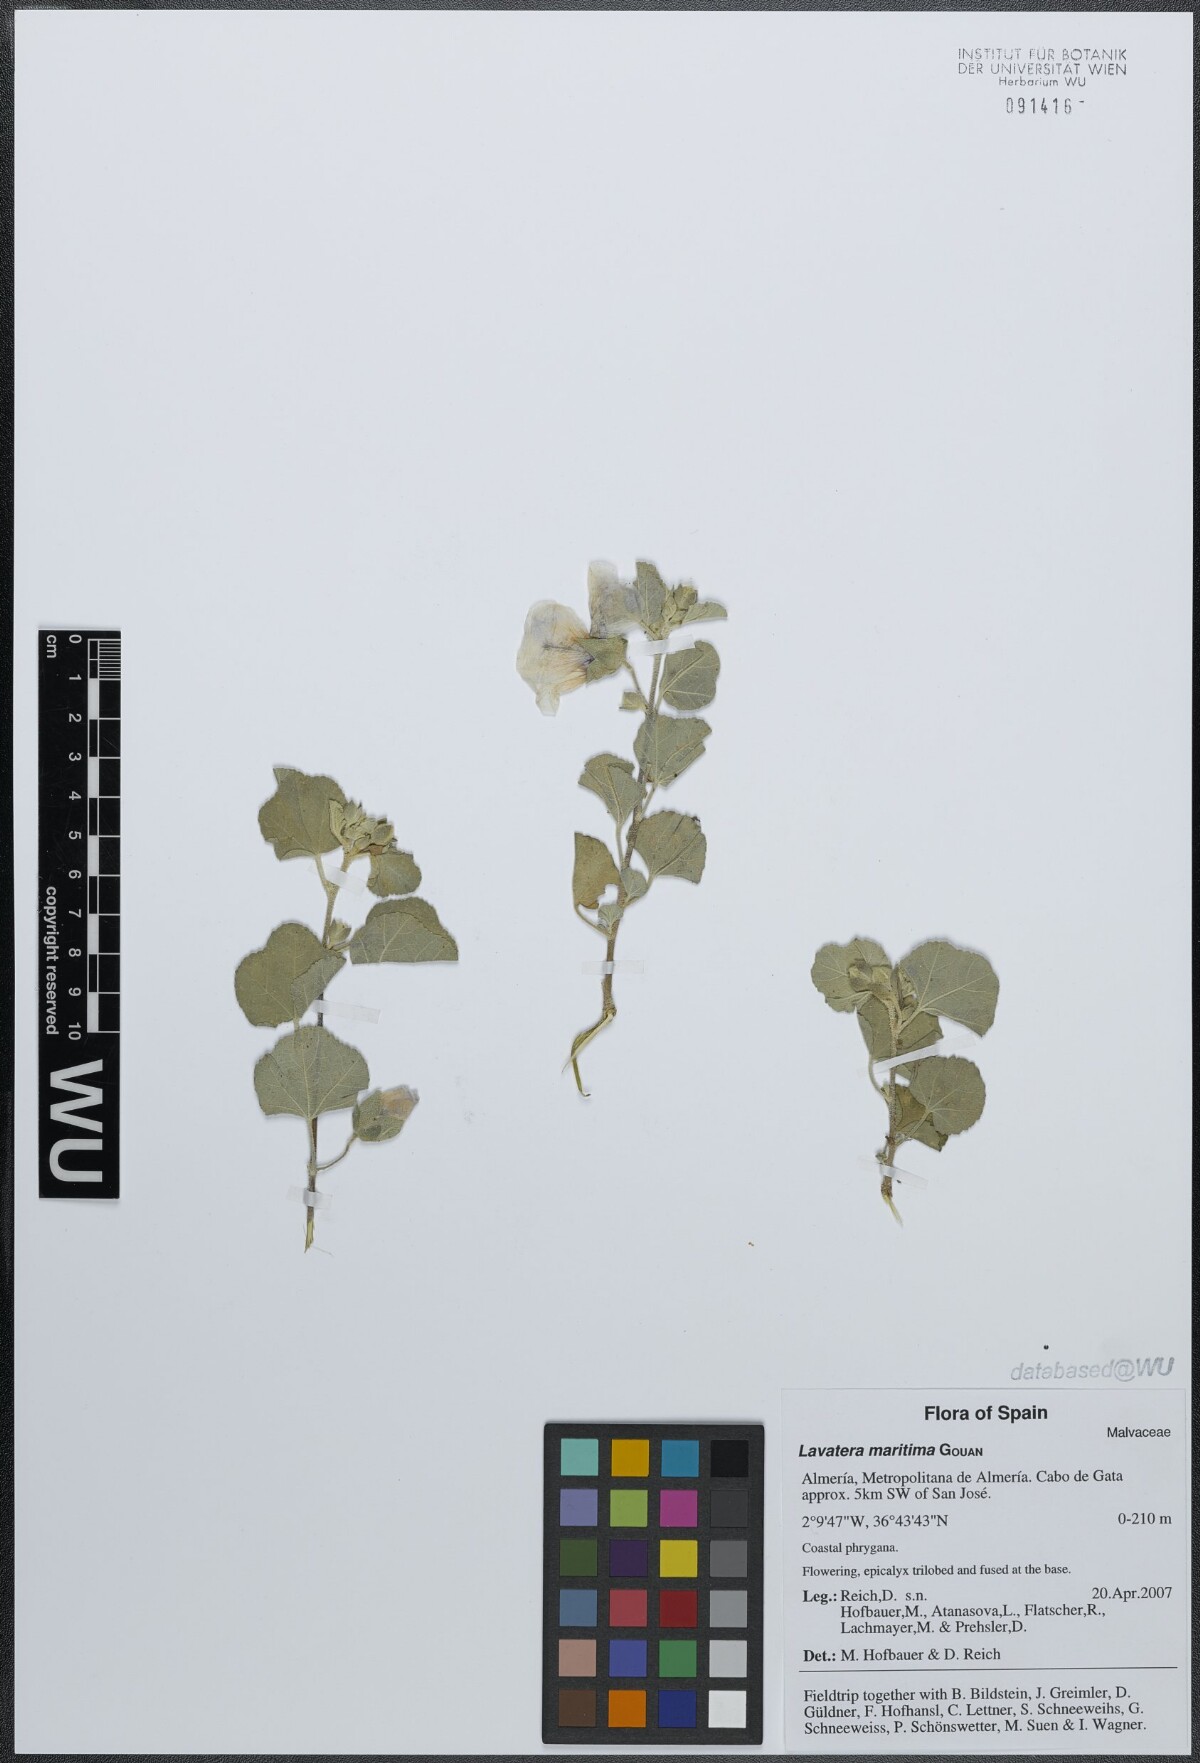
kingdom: Plantae
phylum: Tracheophyta
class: Magnoliopsida
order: Malvales
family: Malvaceae
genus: Malva
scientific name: Malva subovata
